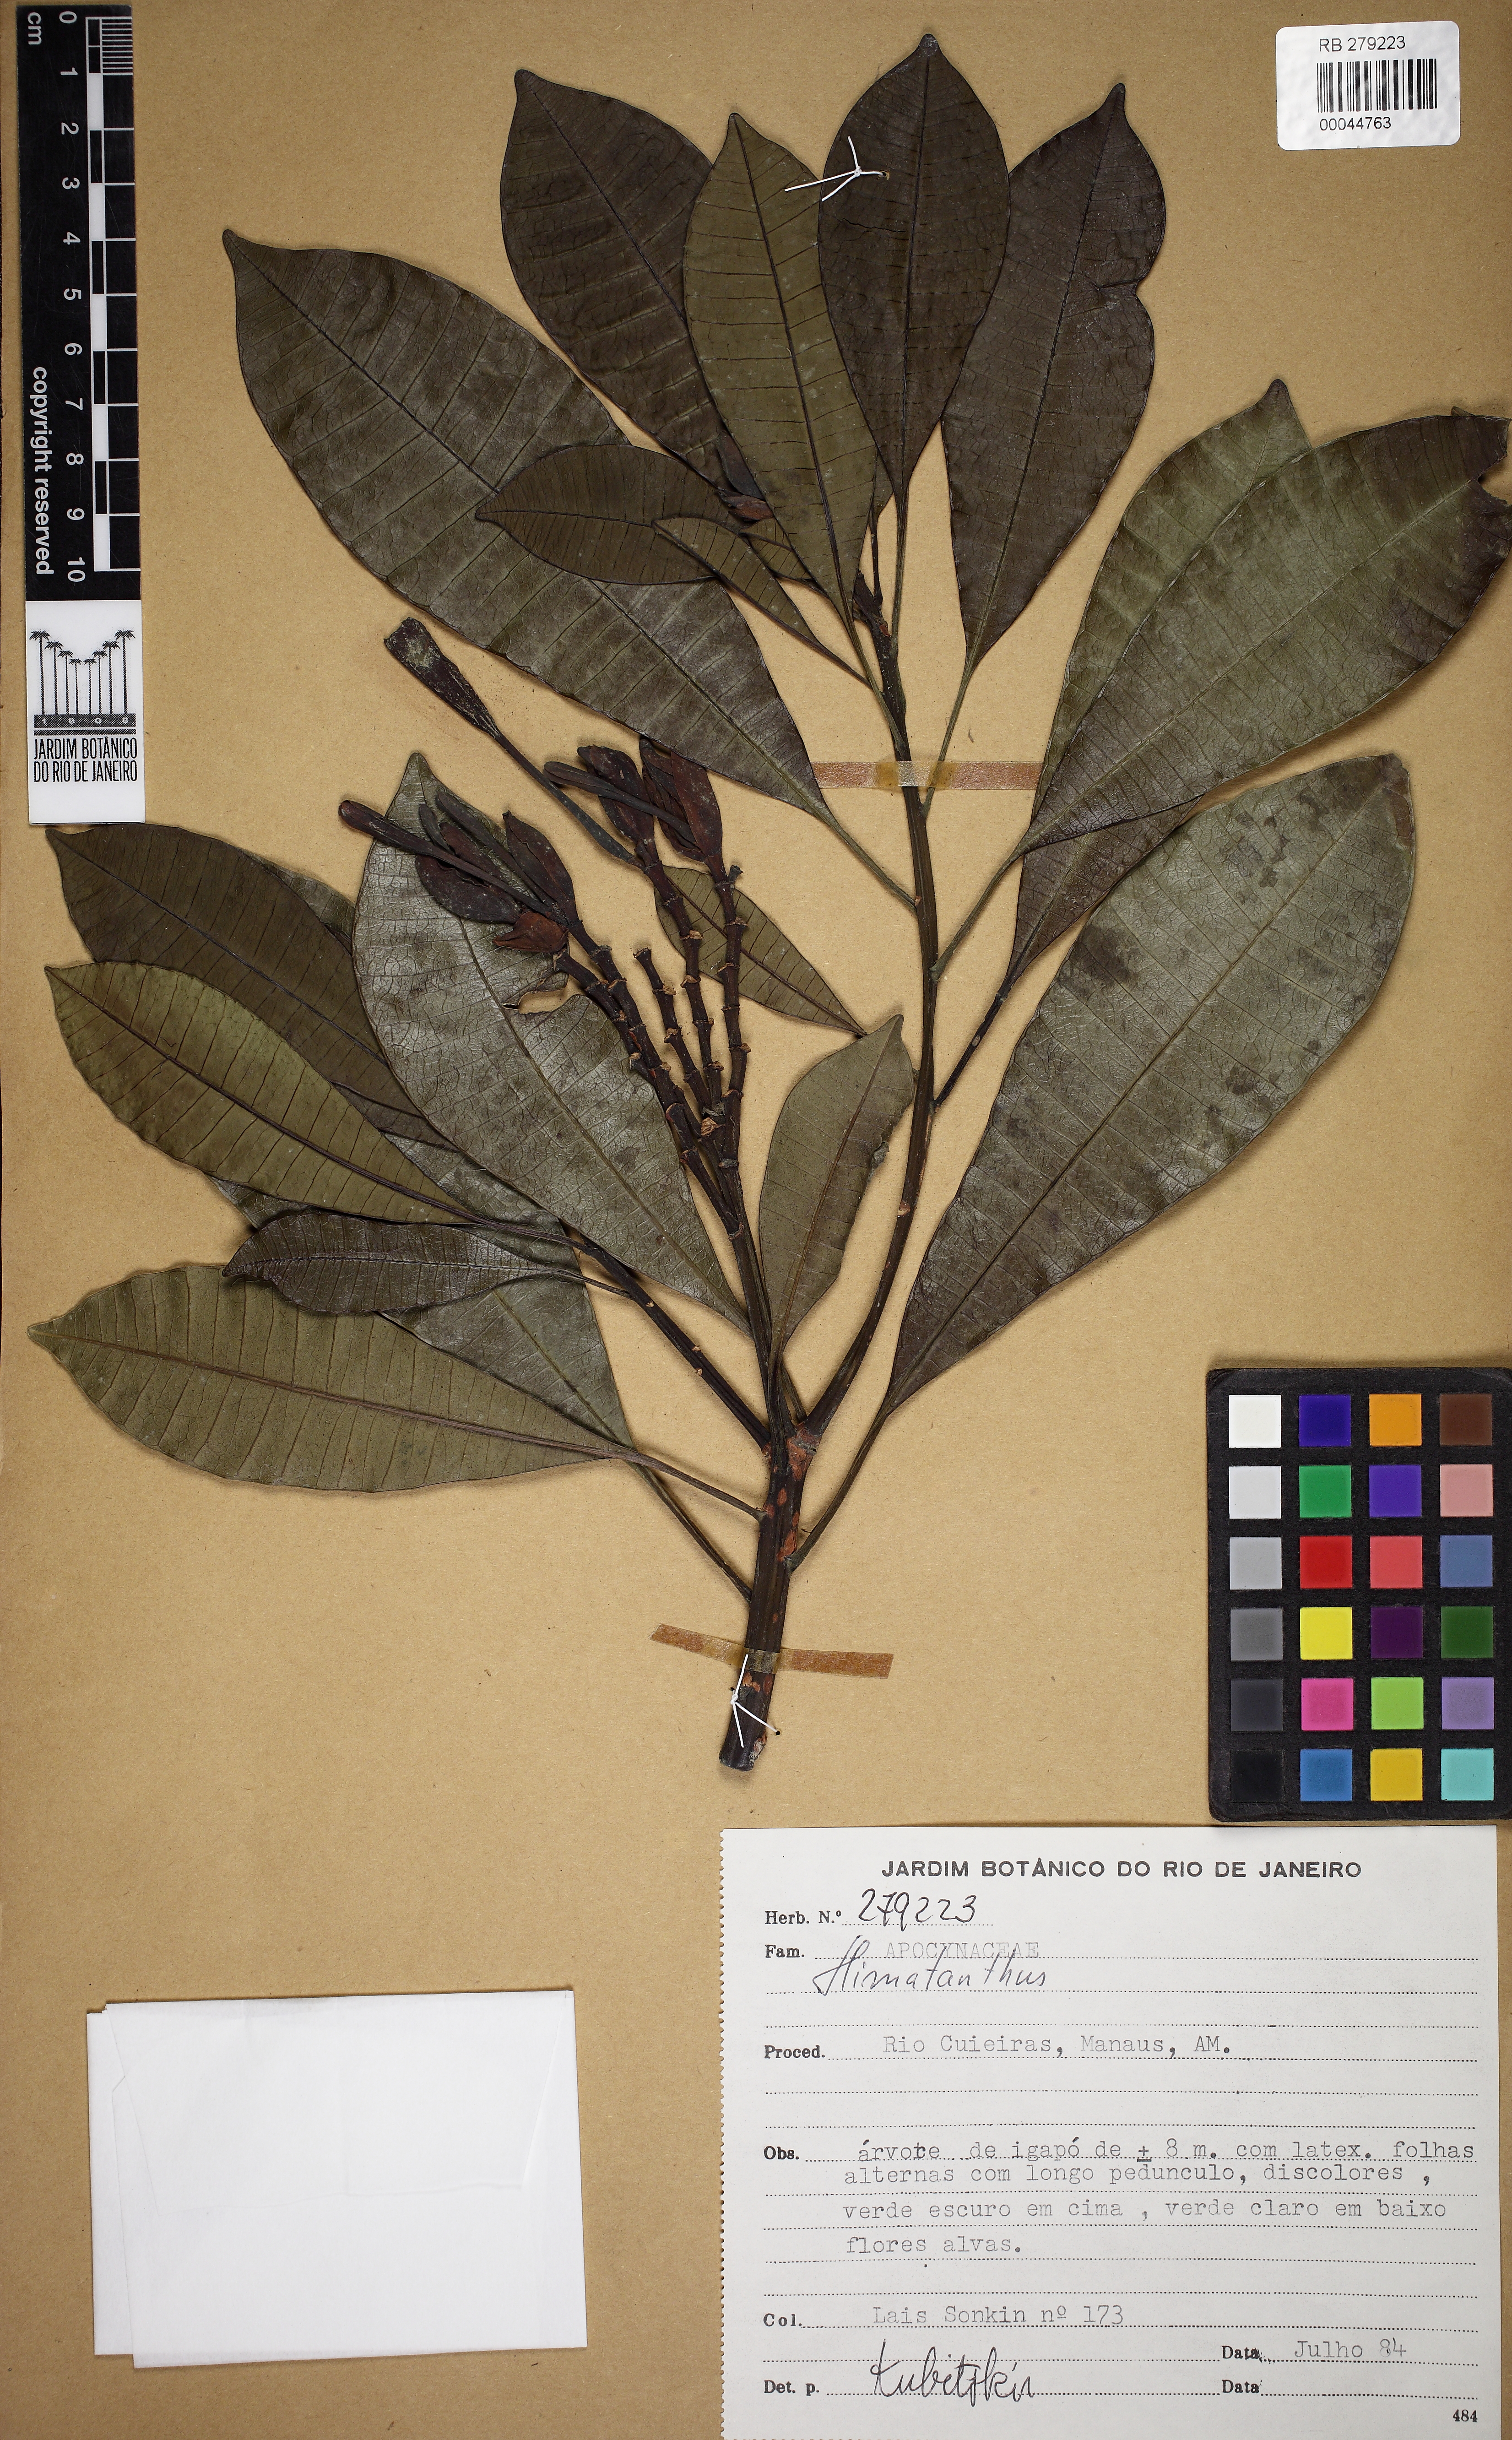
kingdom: Plantae
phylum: Tracheophyta
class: Magnoliopsida
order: Gentianales
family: Apocynaceae
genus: Himatanthus
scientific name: Himatanthus
